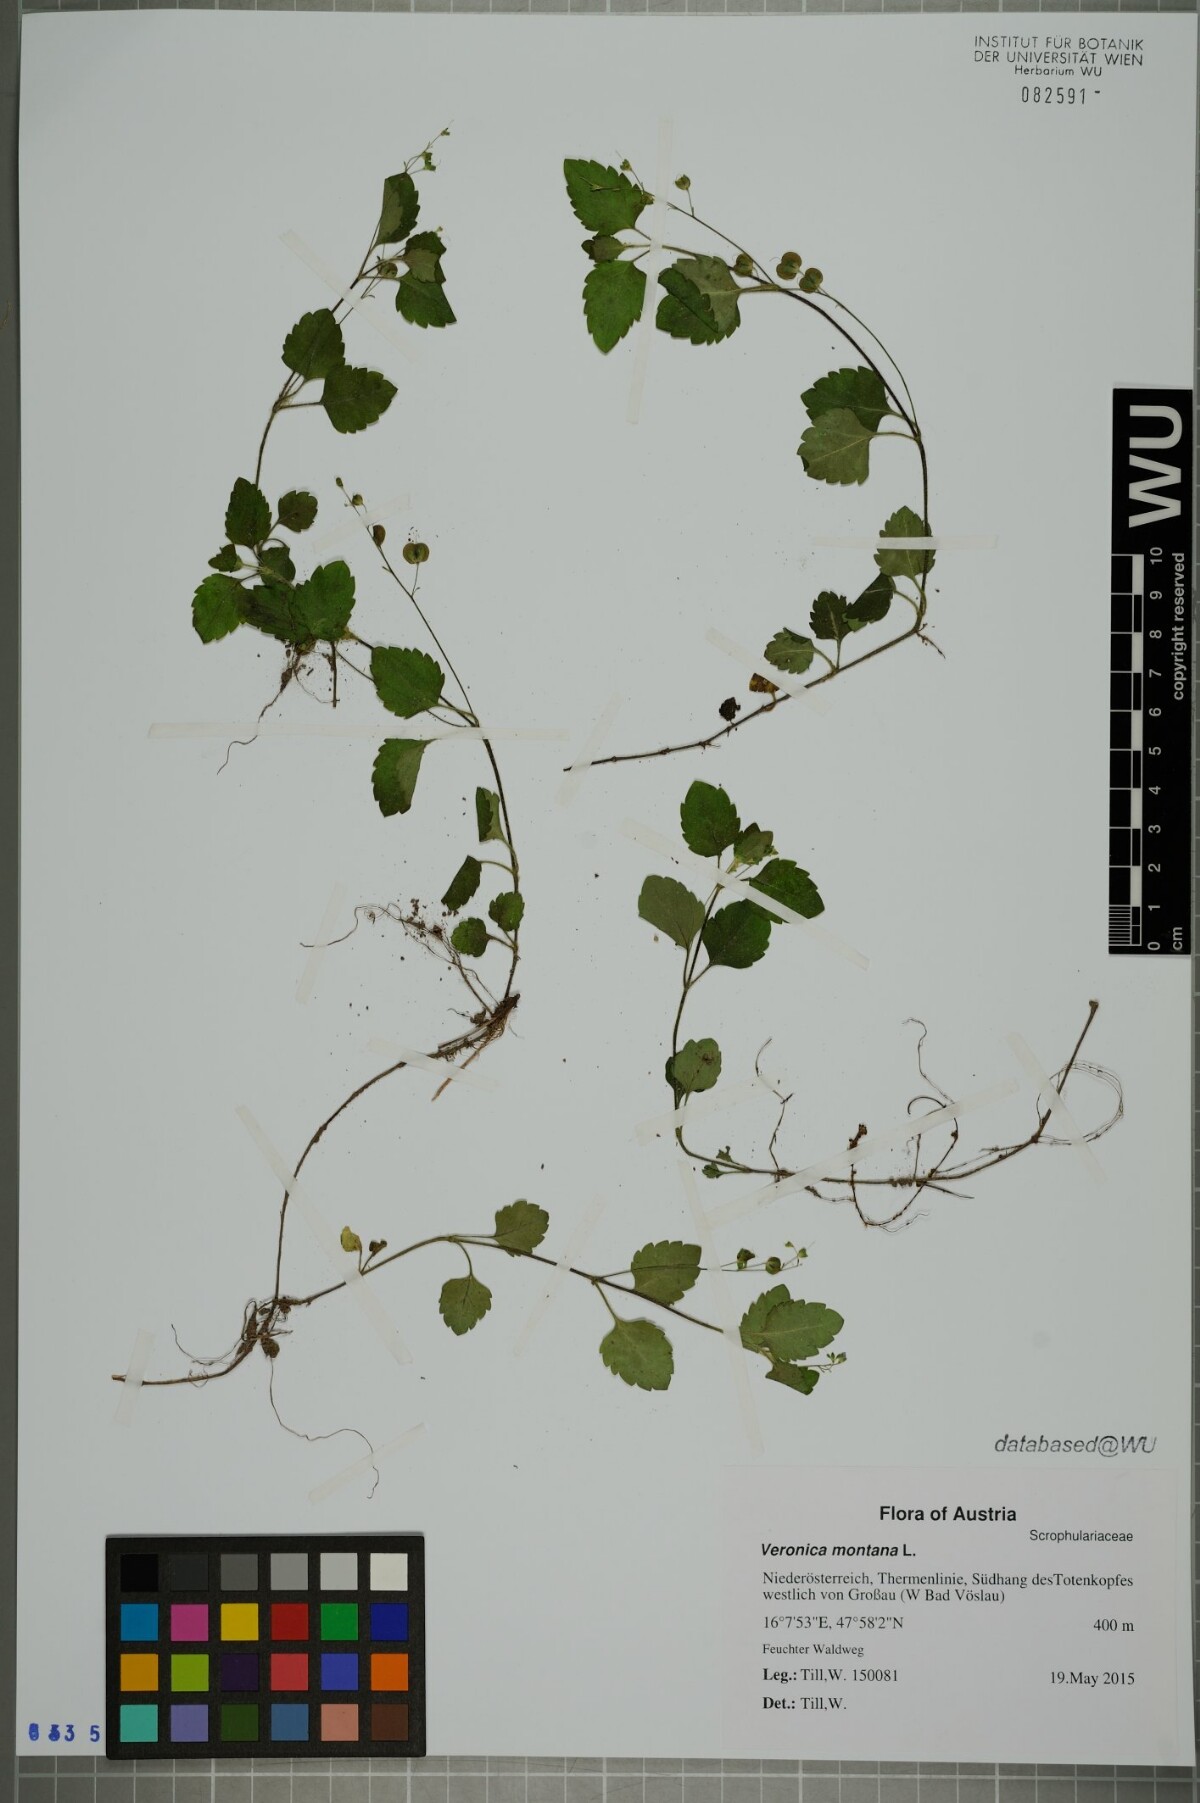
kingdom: Plantae
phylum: Tracheophyta
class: Magnoliopsida
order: Lamiales
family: Plantaginaceae
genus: Veronica
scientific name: Veronica montana
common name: Wood speedwell
